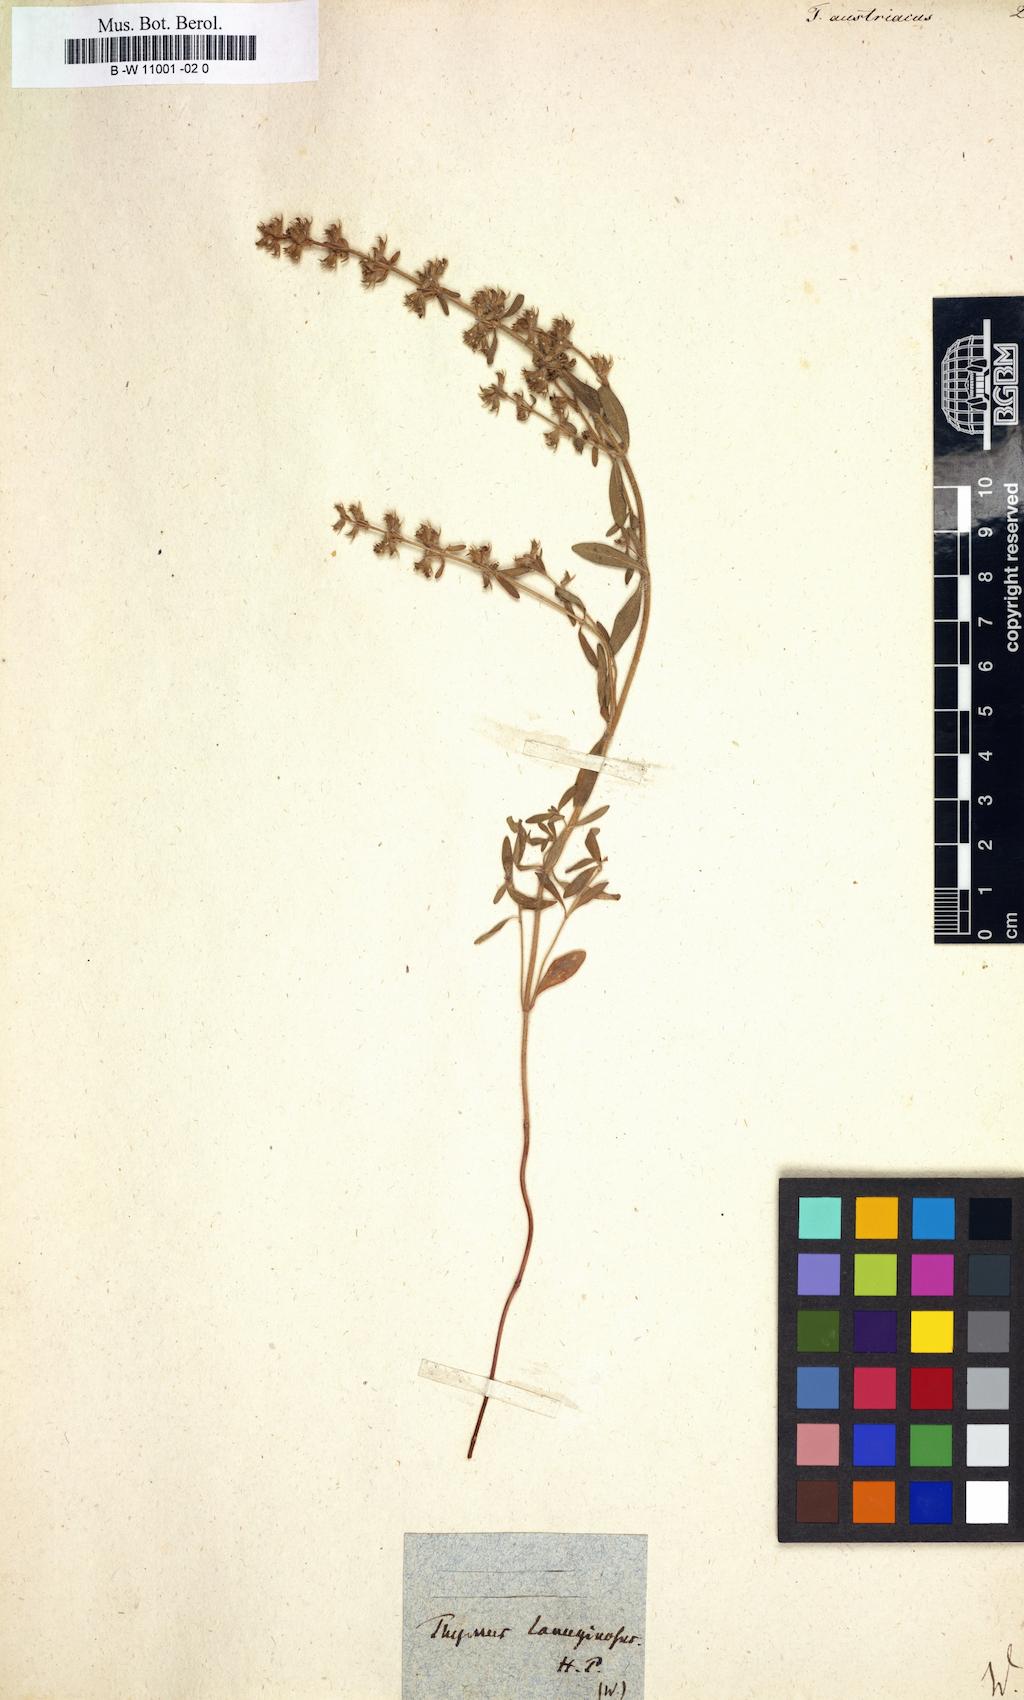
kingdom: Plantae
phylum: Tracheophyta
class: Magnoliopsida
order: Lamiales
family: Lamiaceae
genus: Thymus
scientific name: Thymus odoratissimus
